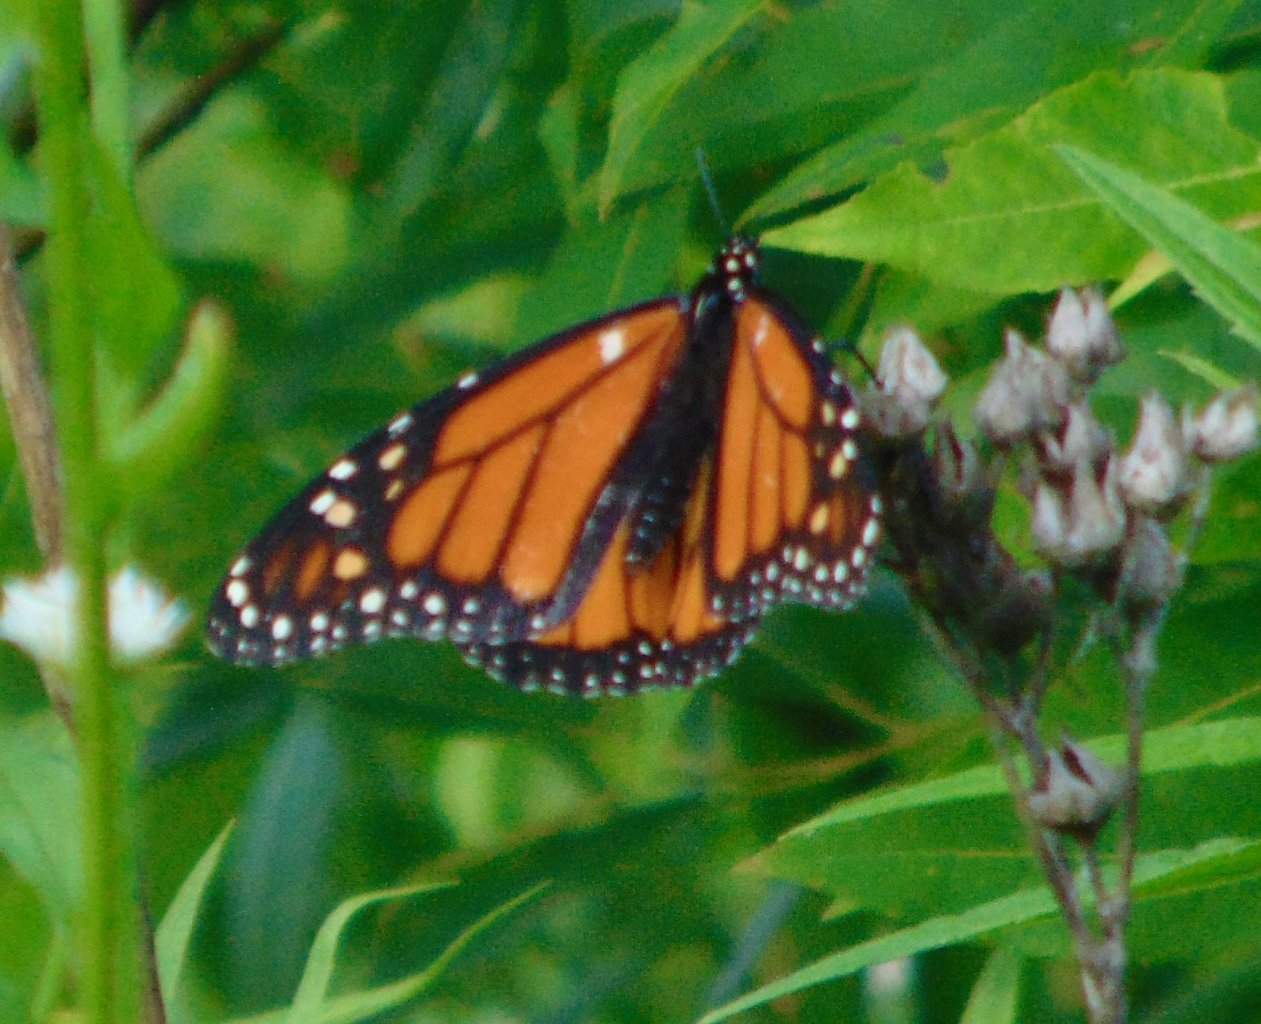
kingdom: Animalia
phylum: Arthropoda
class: Insecta
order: Lepidoptera
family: Nymphalidae
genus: Danaus
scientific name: Danaus plexippus
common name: Monarch
